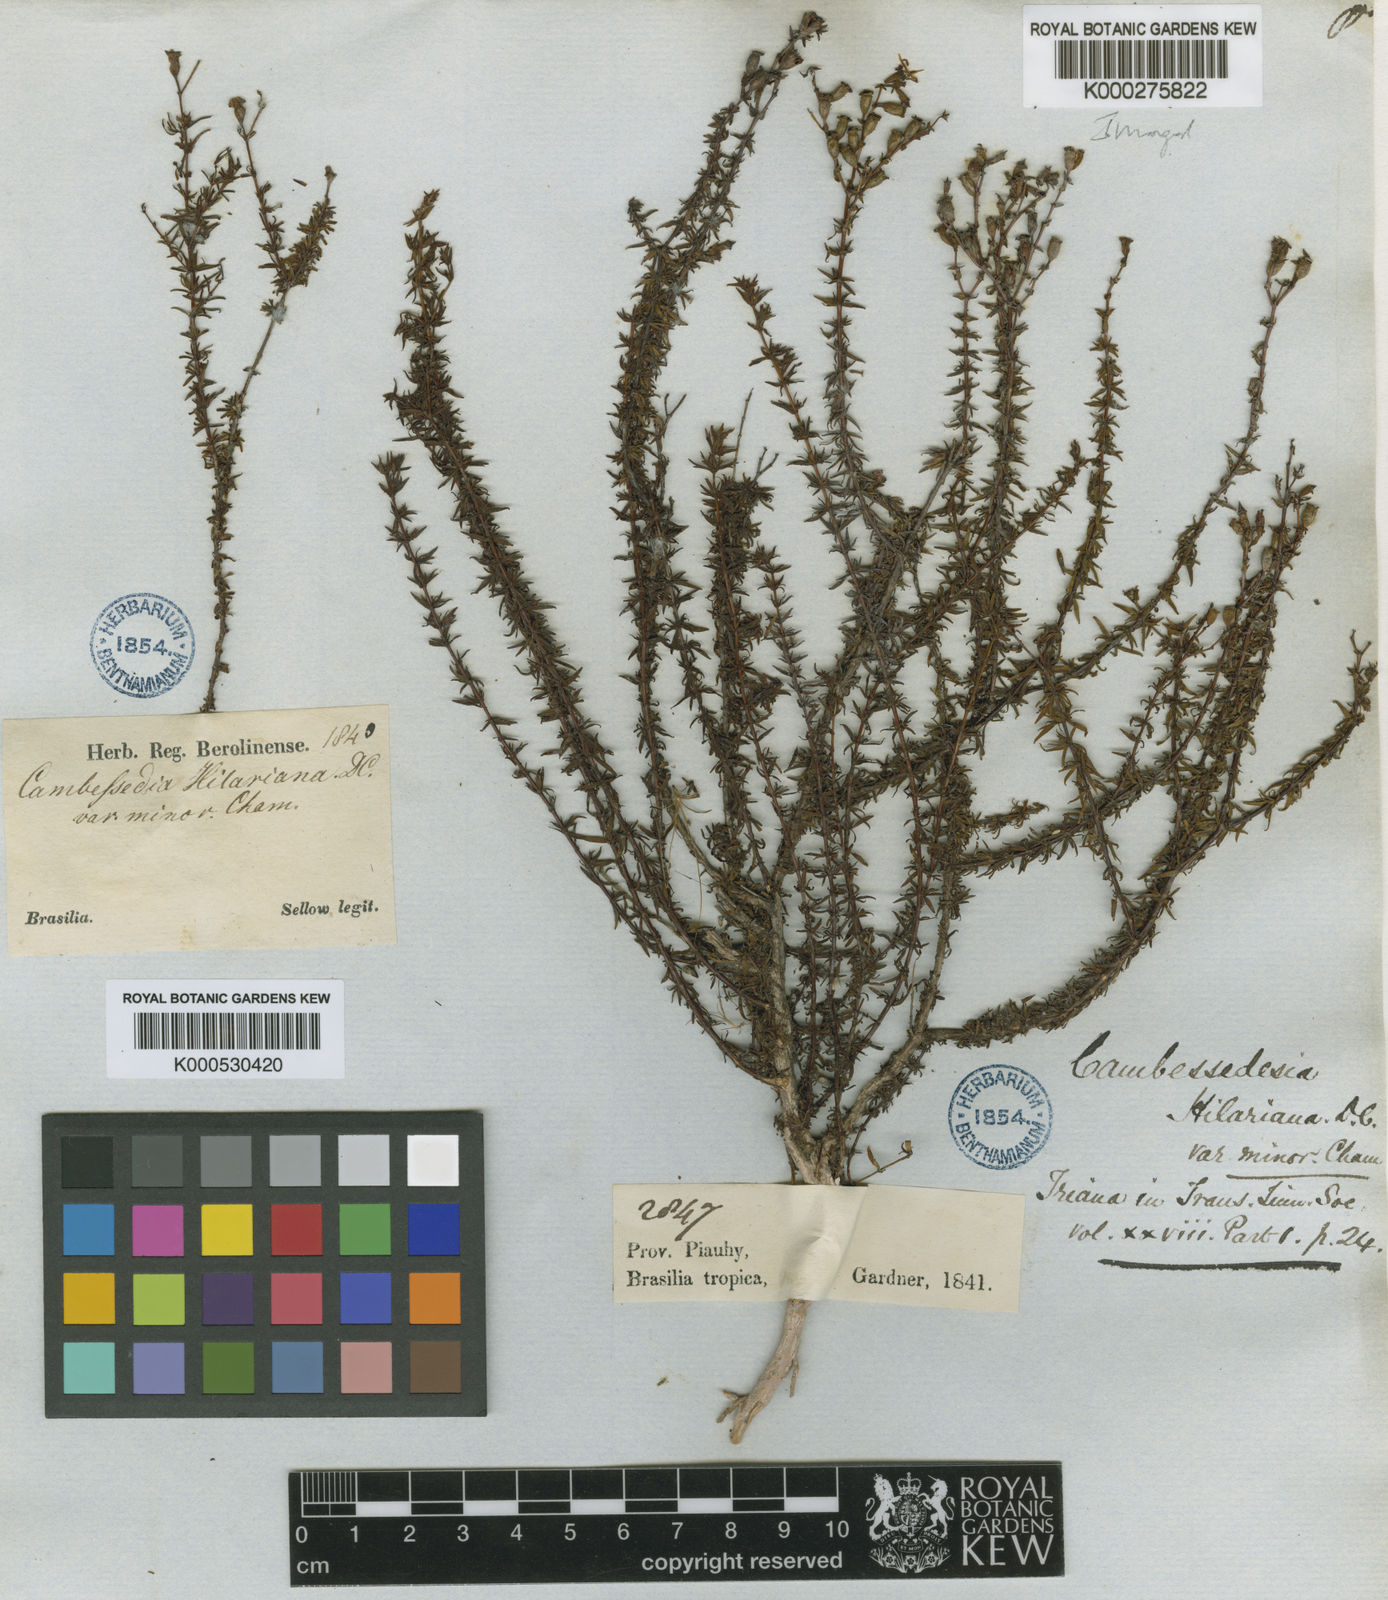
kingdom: Plantae
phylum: Tracheophyta
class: Magnoliopsida
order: Myrtales
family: Melastomataceae
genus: Cambessedesia
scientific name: Cambessedesia hilariana
